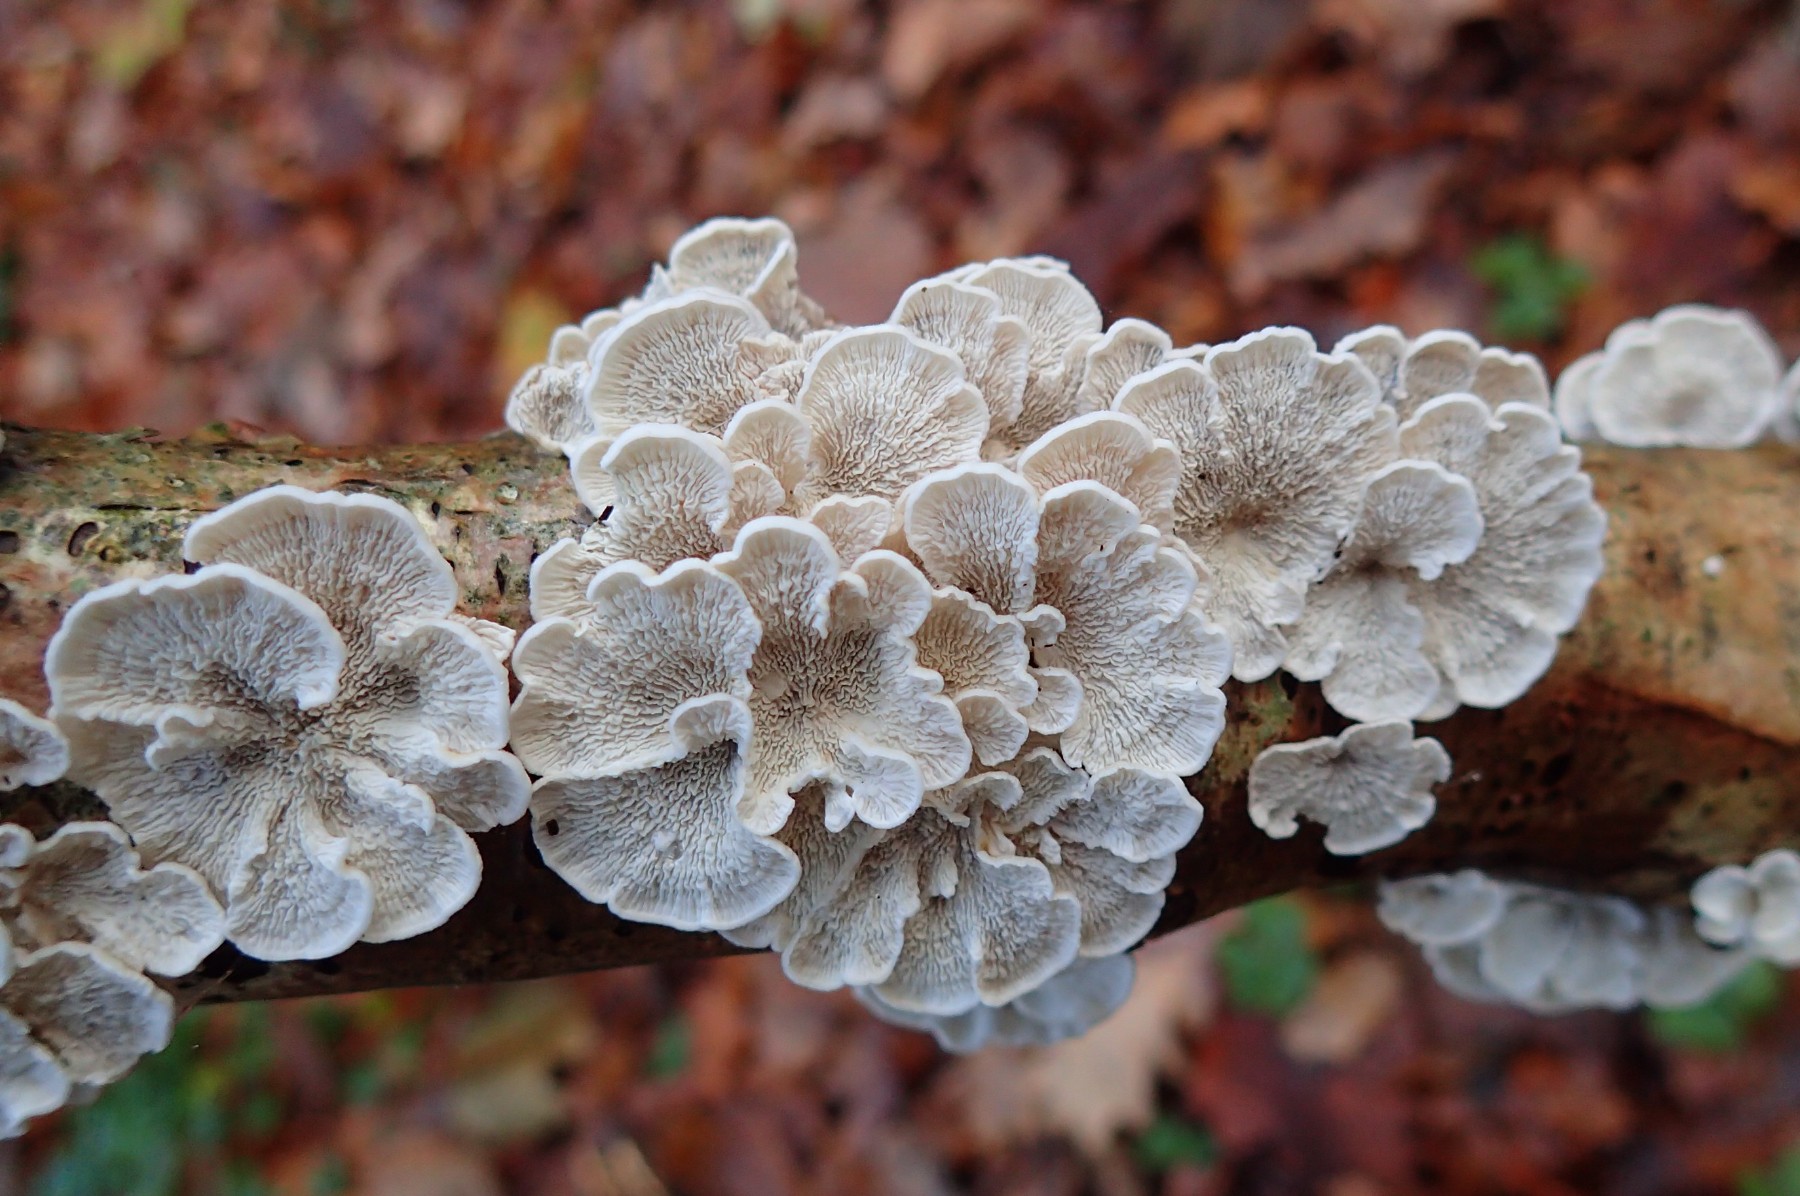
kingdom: Fungi
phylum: Basidiomycota
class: Agaricomycetes
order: Amylocorticiales
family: Amylocorticiaceae
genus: Plicaturopsis
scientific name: Plicaturopsis crispa
